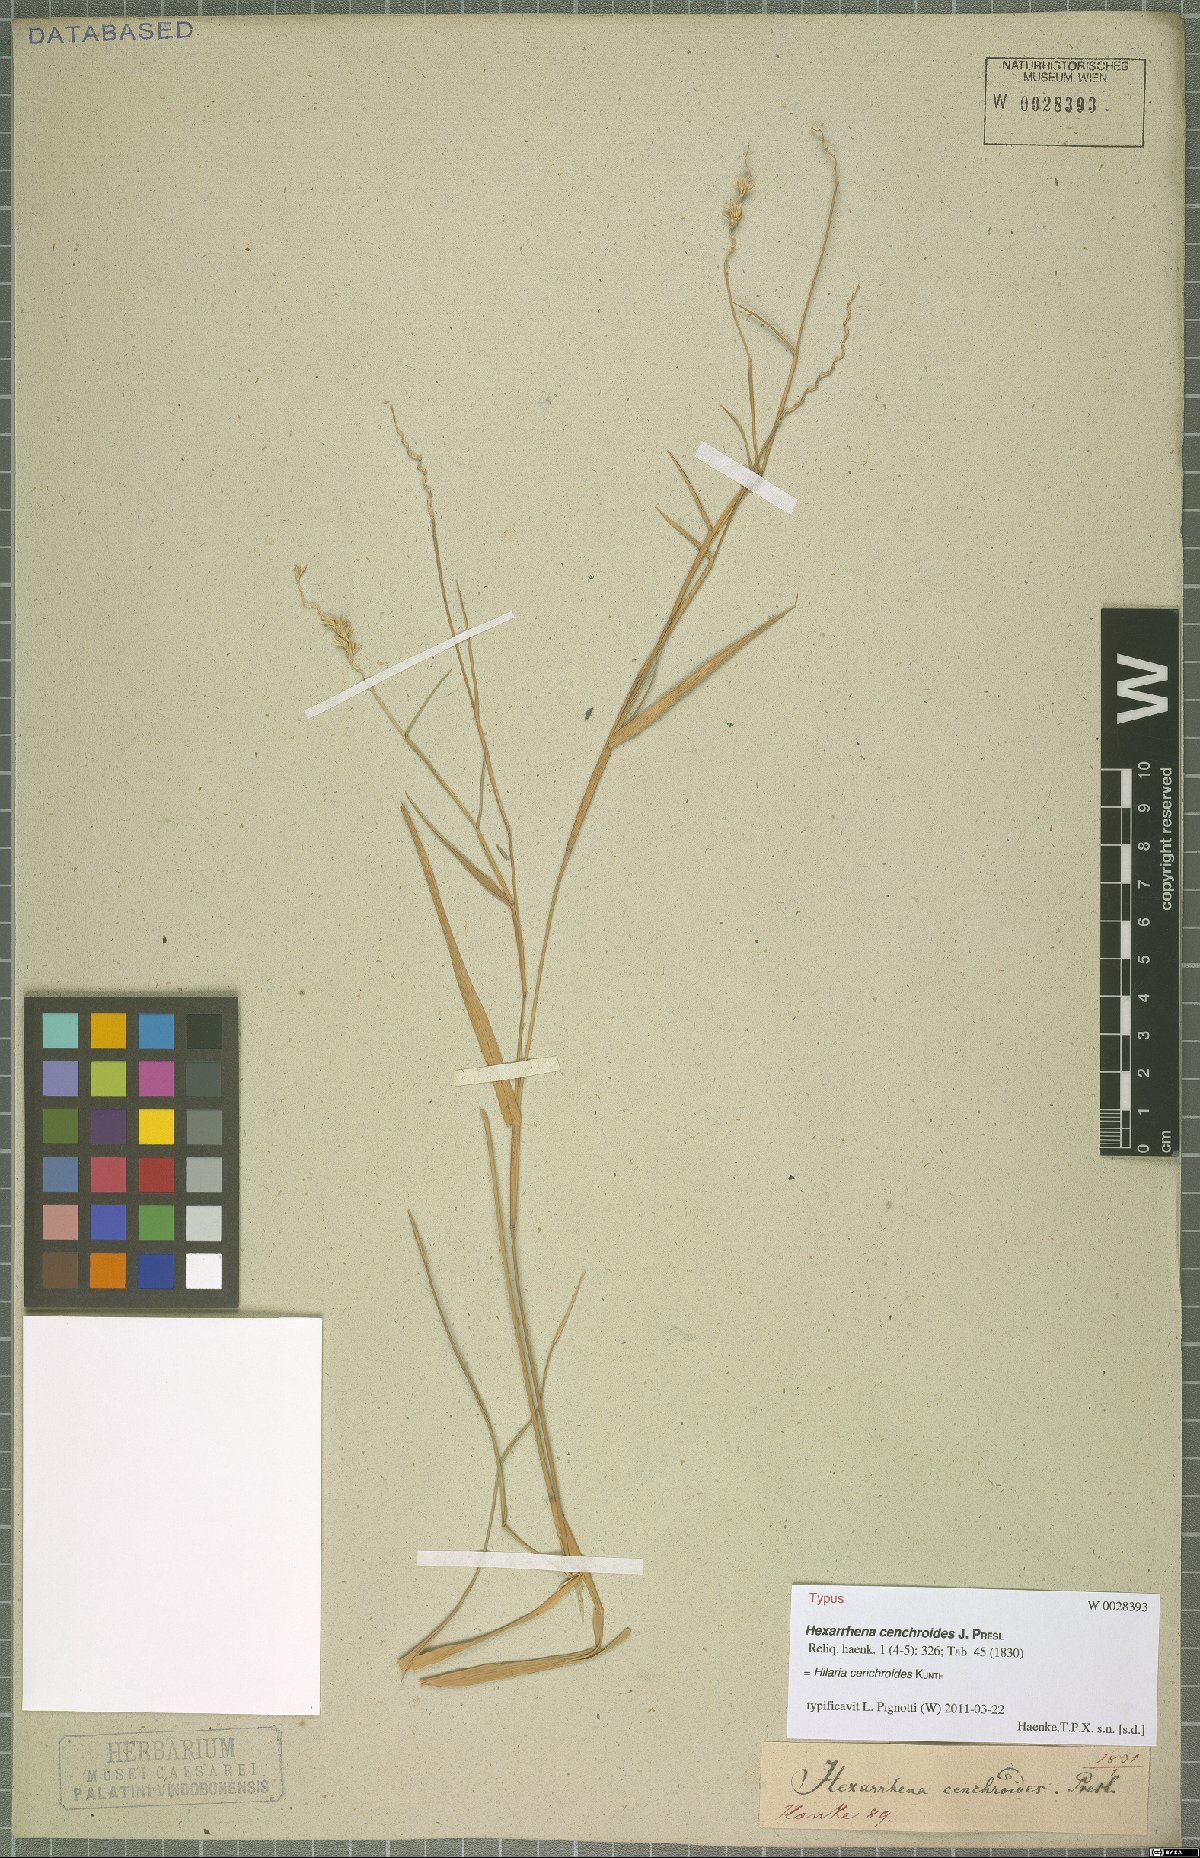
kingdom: Plantae
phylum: Tracheophyta
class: Liliopsida
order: Poales
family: Poaceae
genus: Hilaria
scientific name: Hilaria cenchroides
